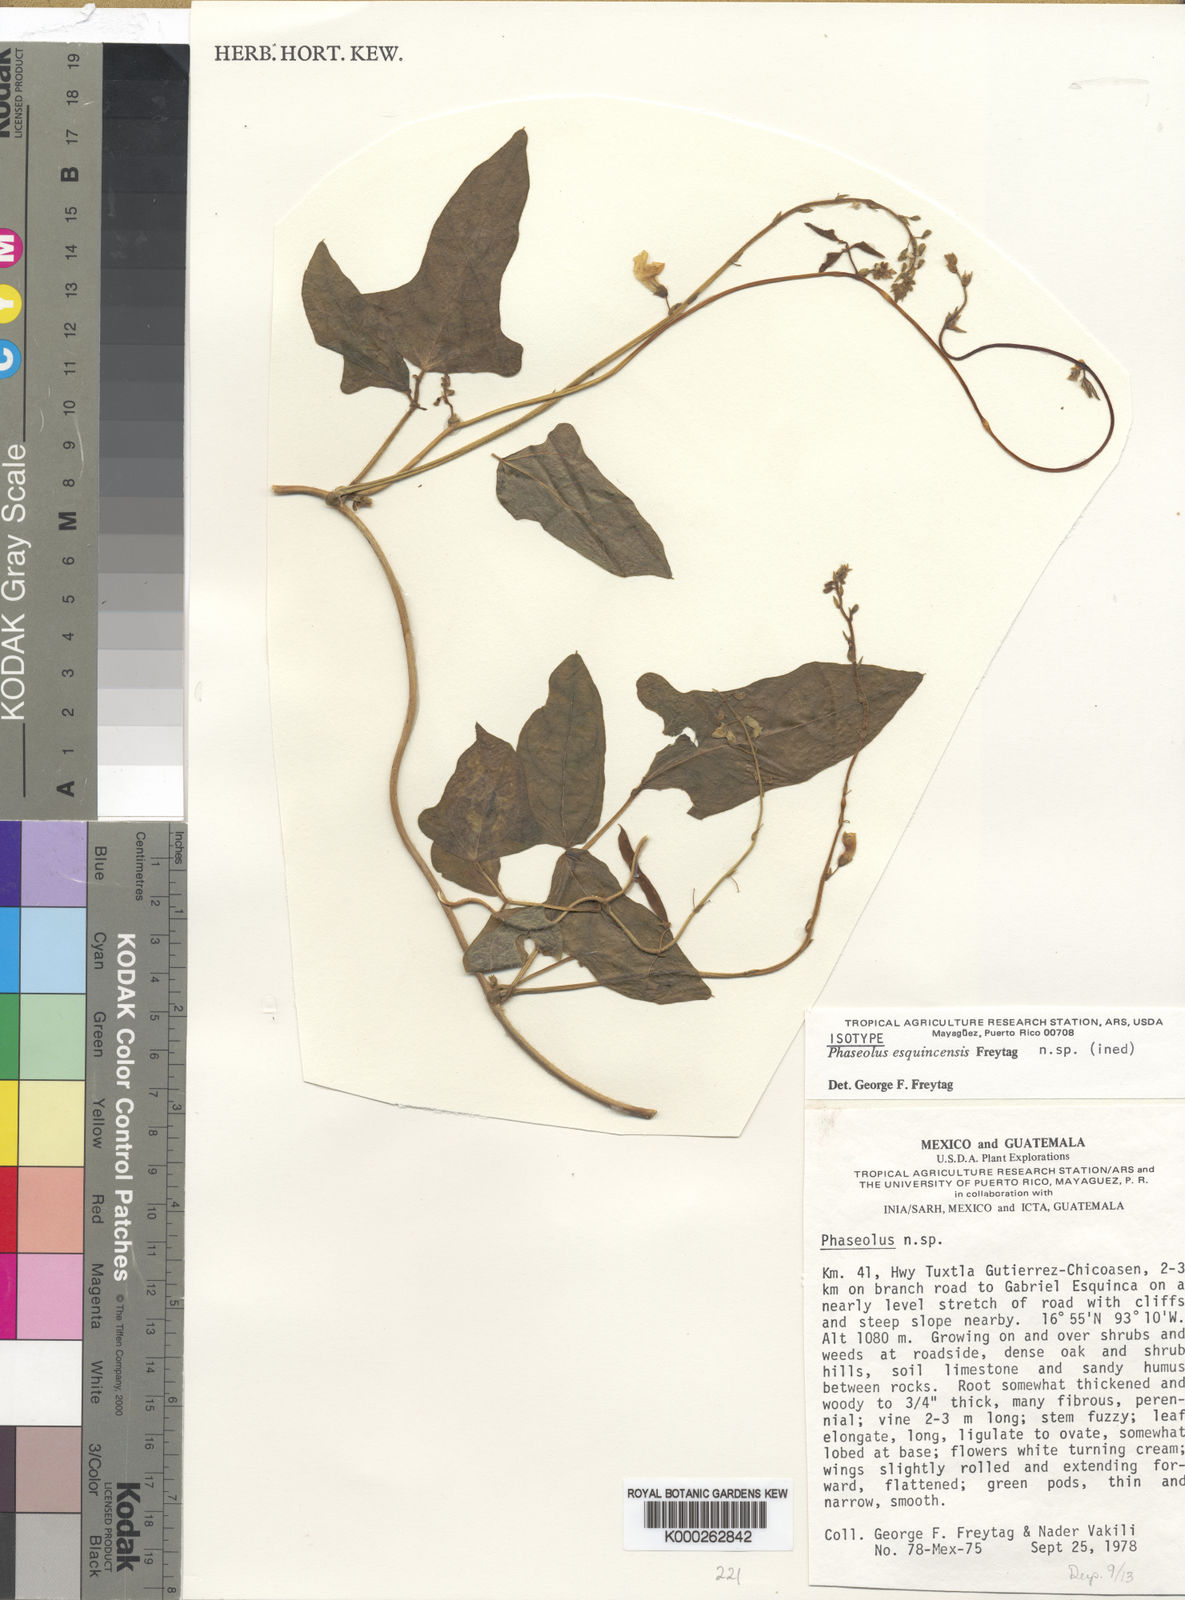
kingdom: Plantae
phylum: Tracheophyta
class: Magnoliopsida
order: Fabales
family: Fabaceae
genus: Phaseolus
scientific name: Phaseolus esquincensis
